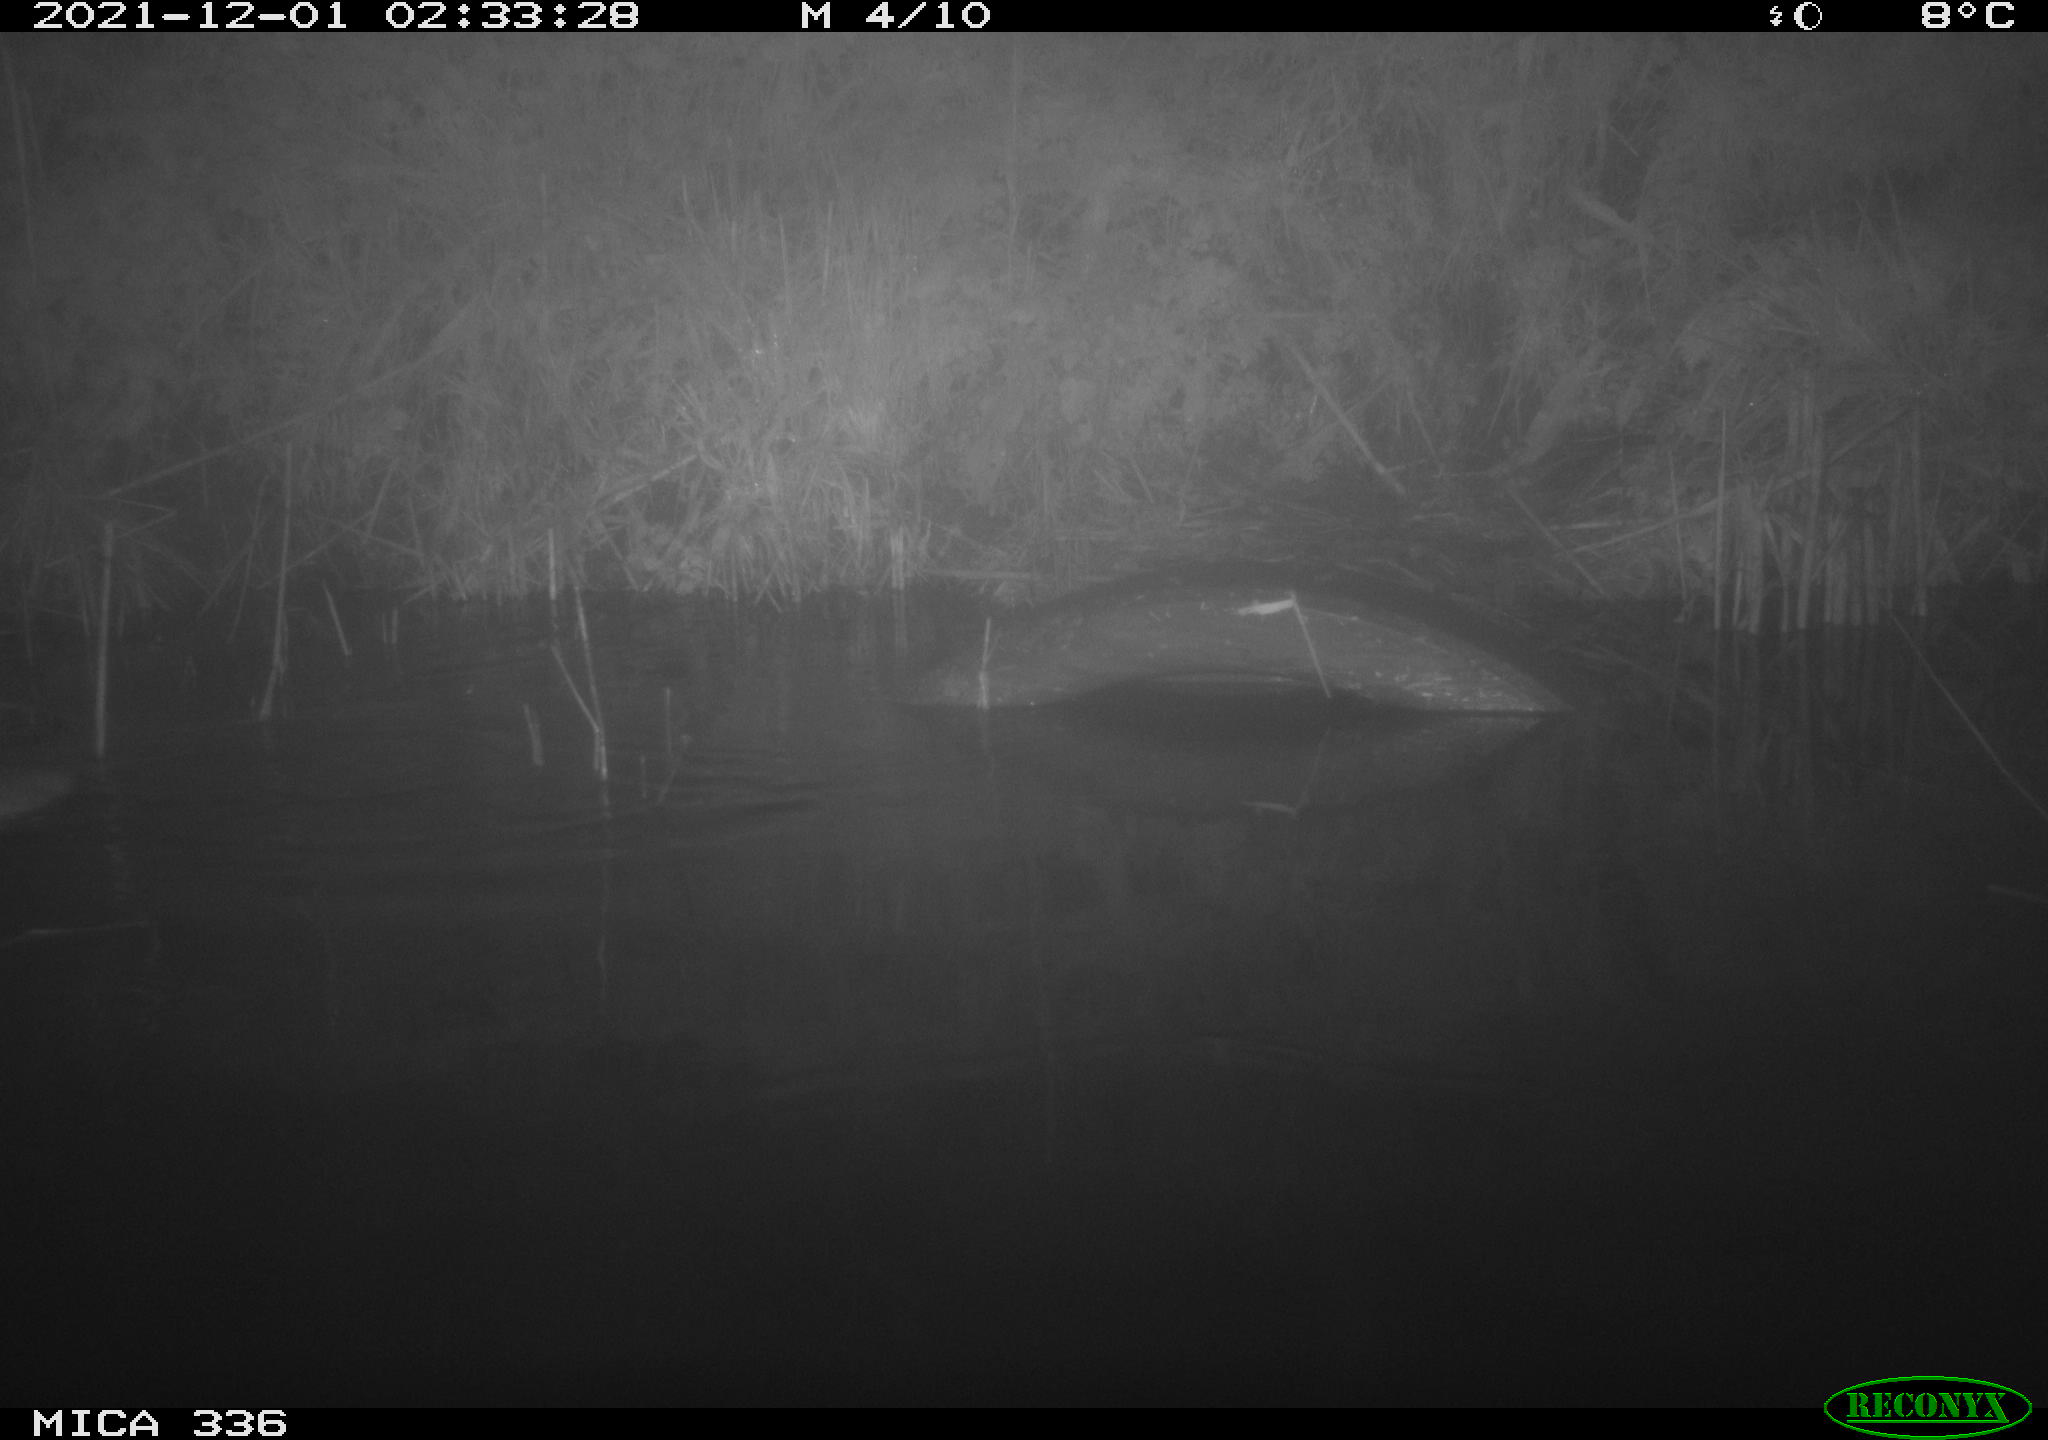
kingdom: Animalia
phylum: Chordata
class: Mammalia
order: Rodentia
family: Muridae
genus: Rattus
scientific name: Rattus norvegicus
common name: Brown rat
